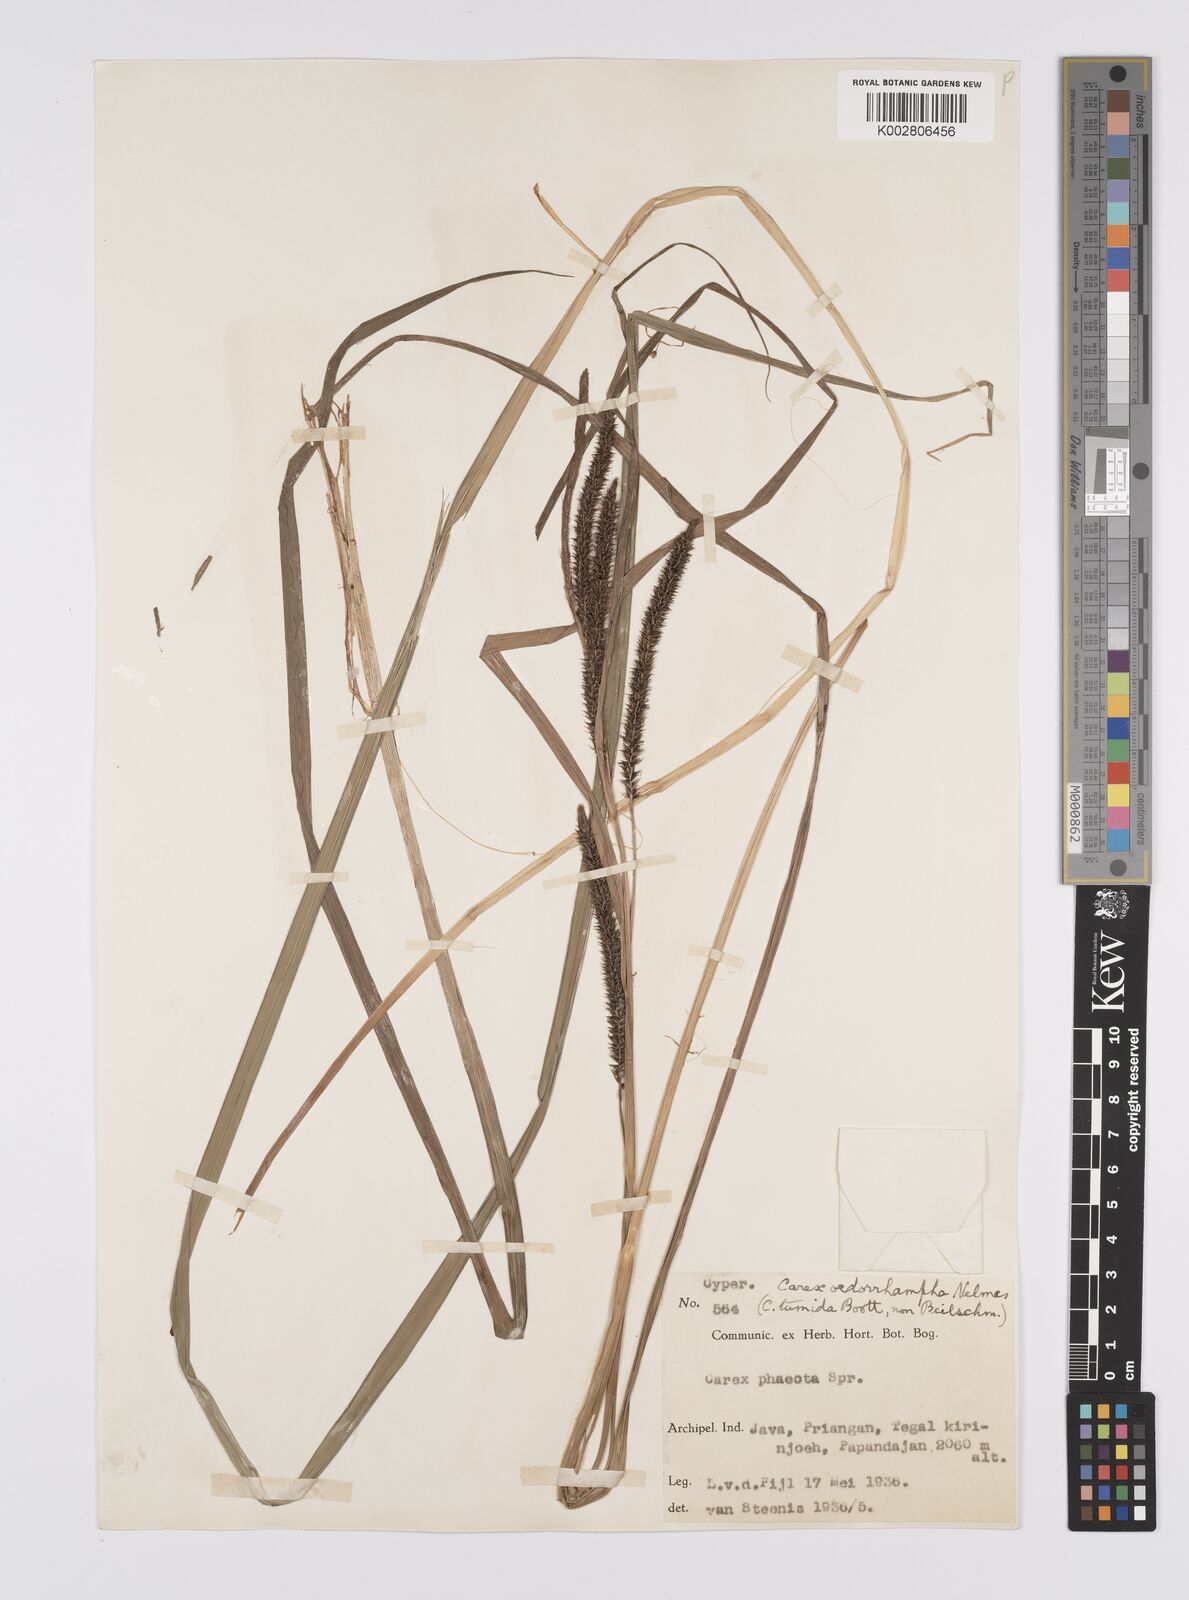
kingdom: Plantae
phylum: Tracheophyta
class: Liliopsida
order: Poales
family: Cyperaceae
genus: Carex
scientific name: Carex tumida
